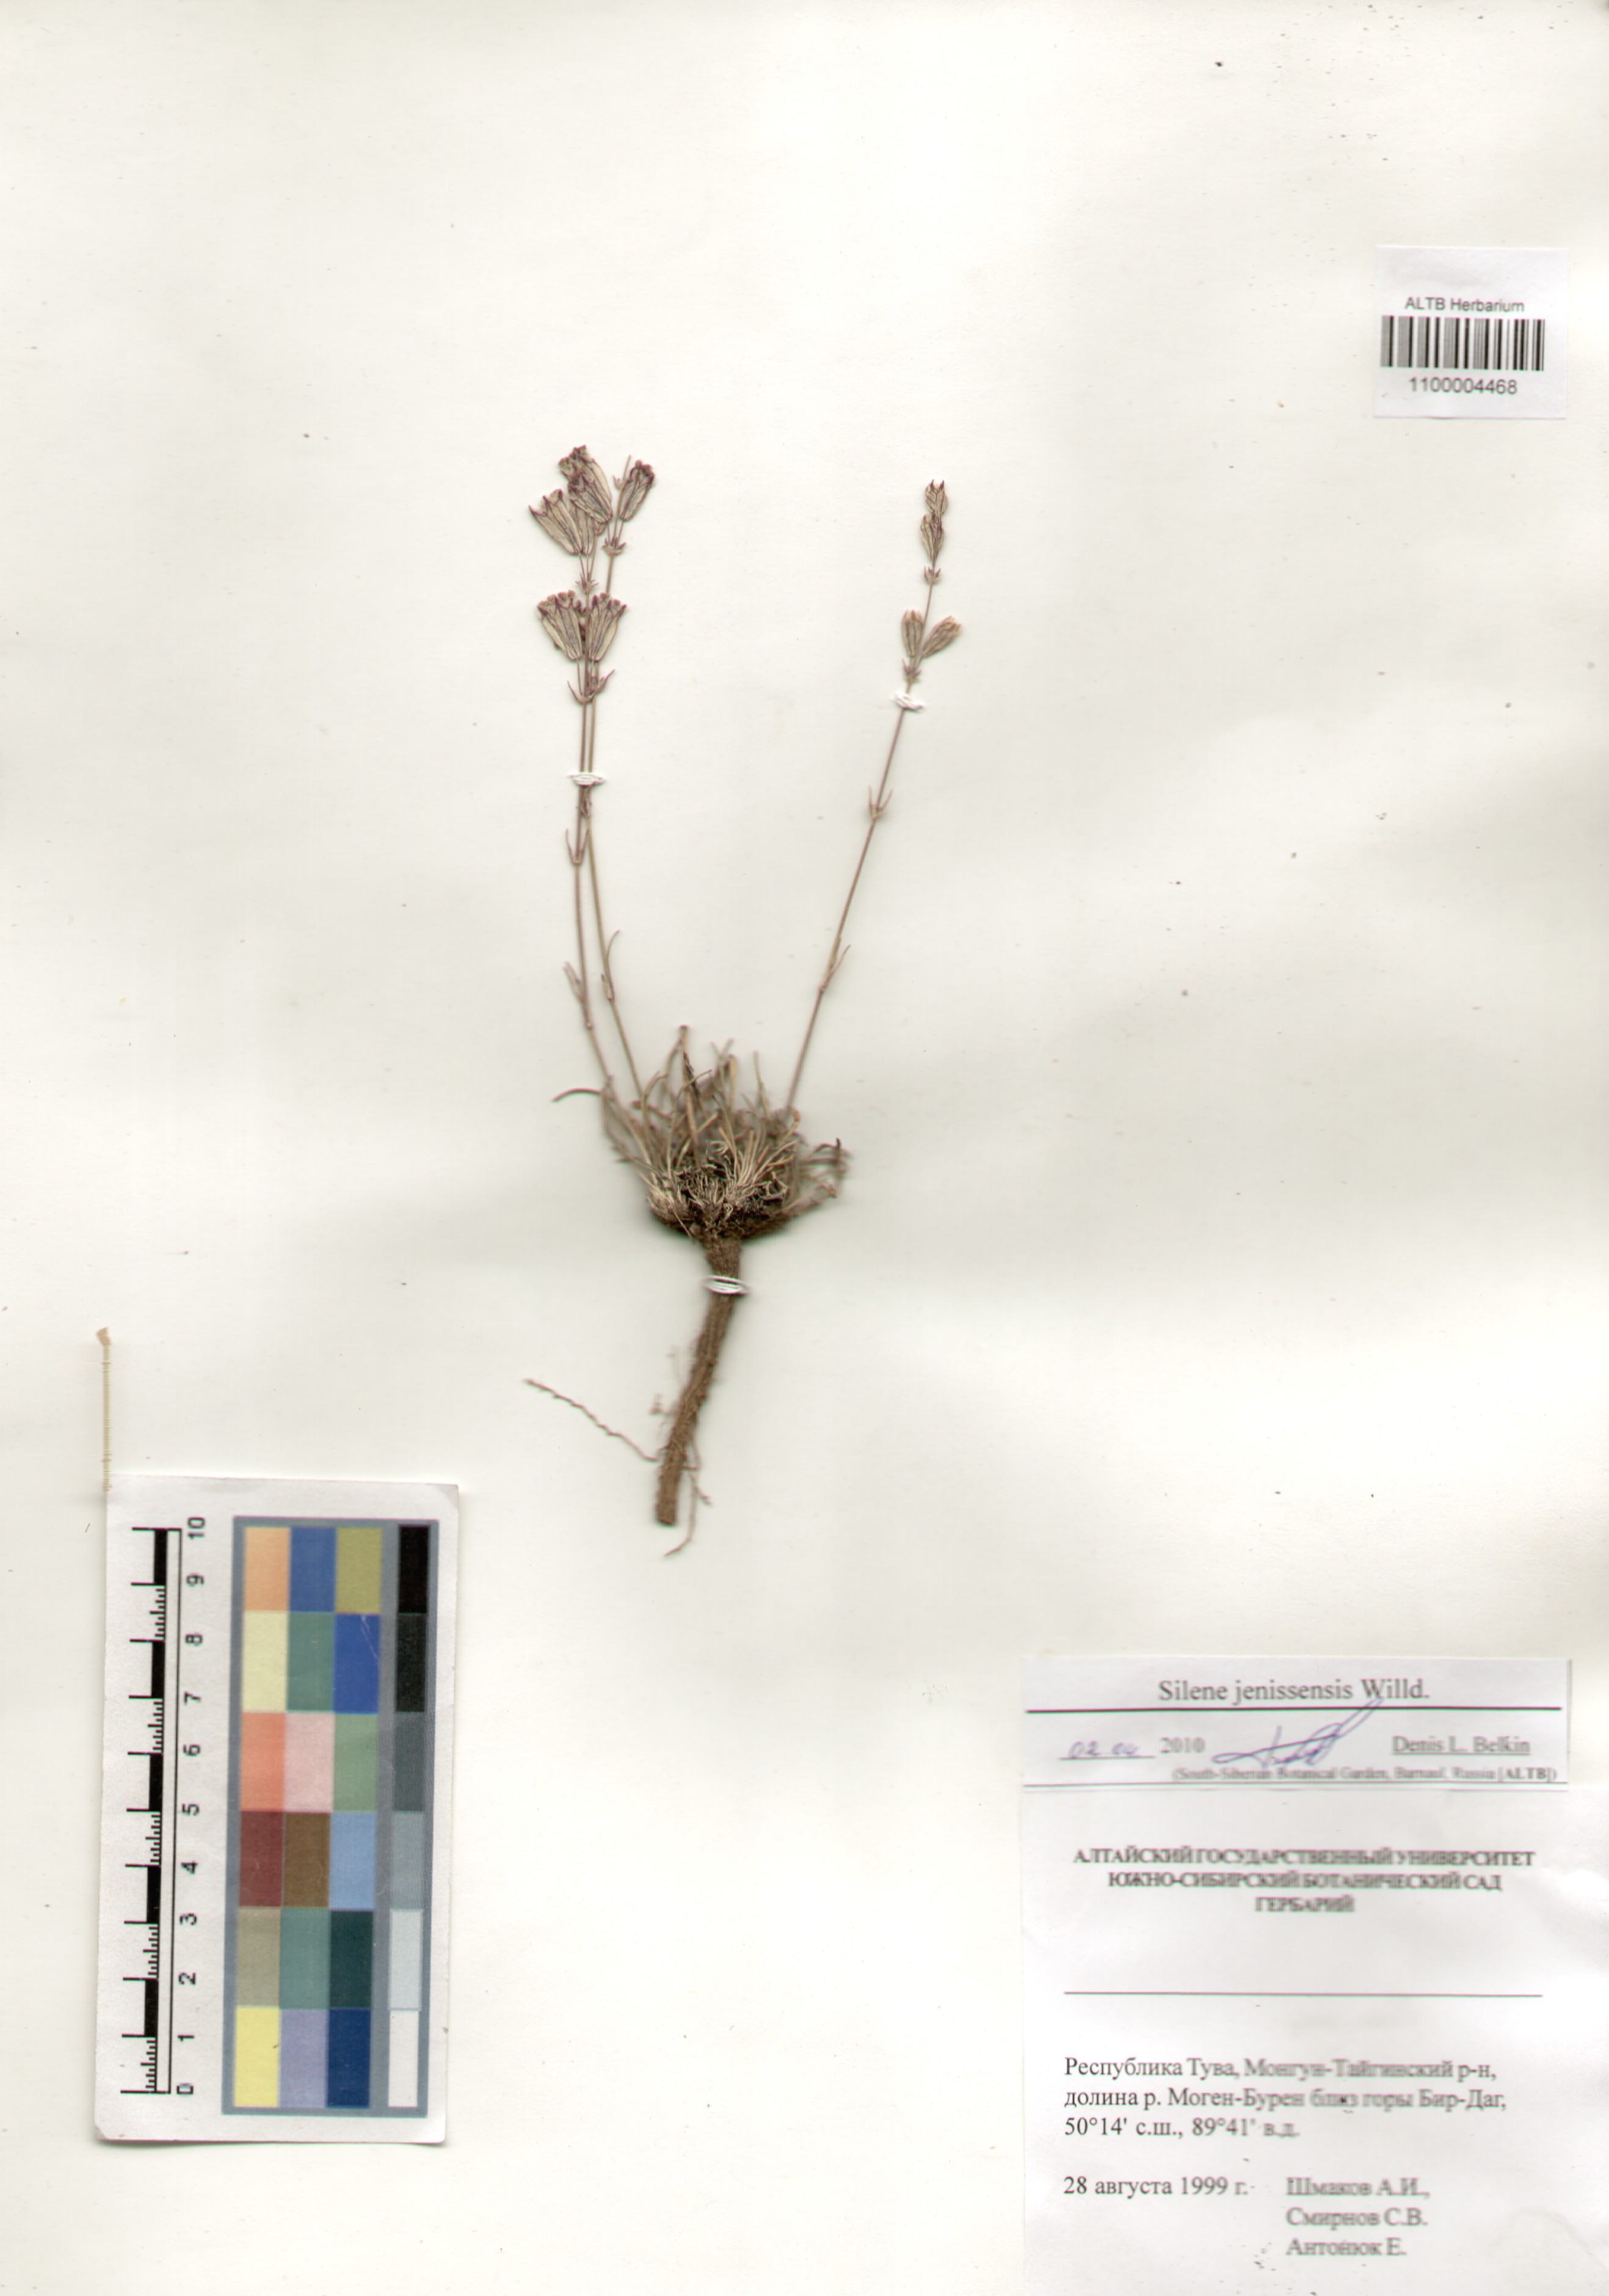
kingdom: Plantae
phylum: Tracheophyta
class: Magnoliopsida
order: Caryophyllales
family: Caryophyllaceae
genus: Silene
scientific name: Silene jeniseensis
